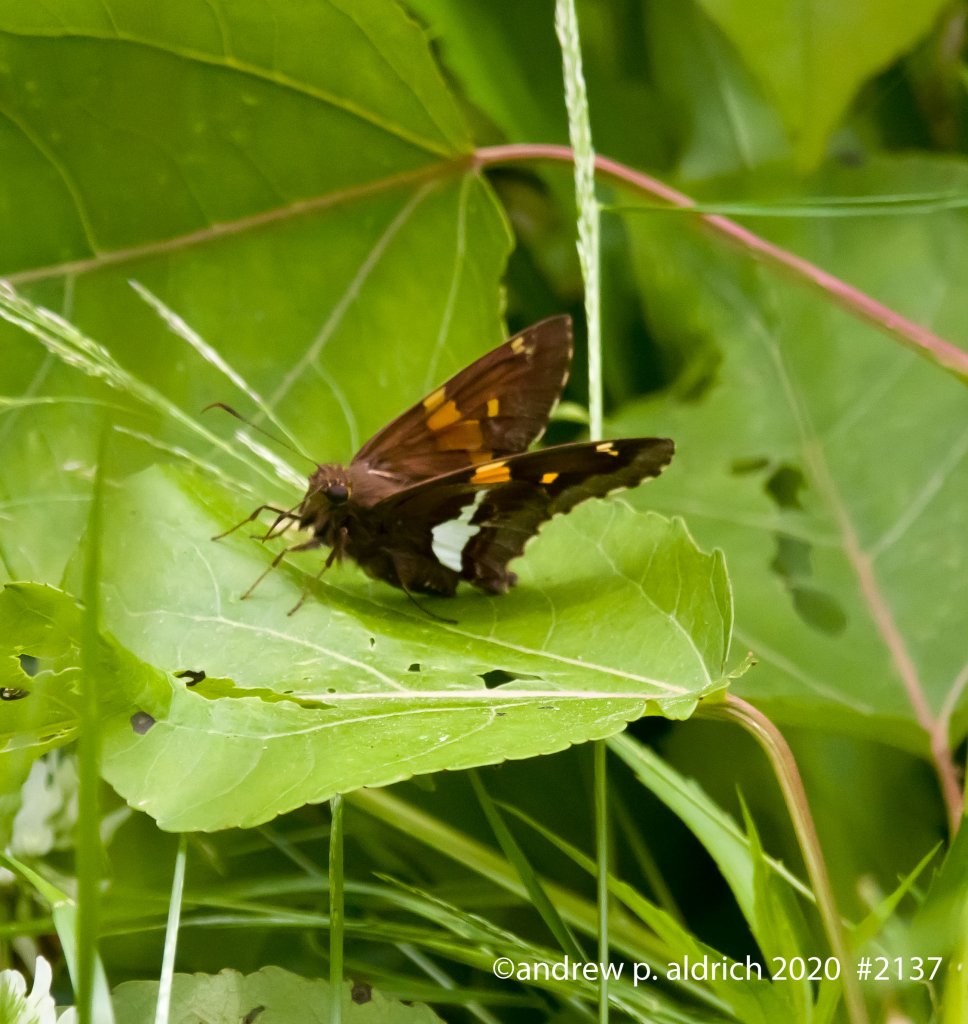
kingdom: Animalia
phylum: Arthropoda
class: Insecta
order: Lepidoptera
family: Hesperiidae
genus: Epargyreus
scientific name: Epargyreus clarus
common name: Silver-spotted Skipper
